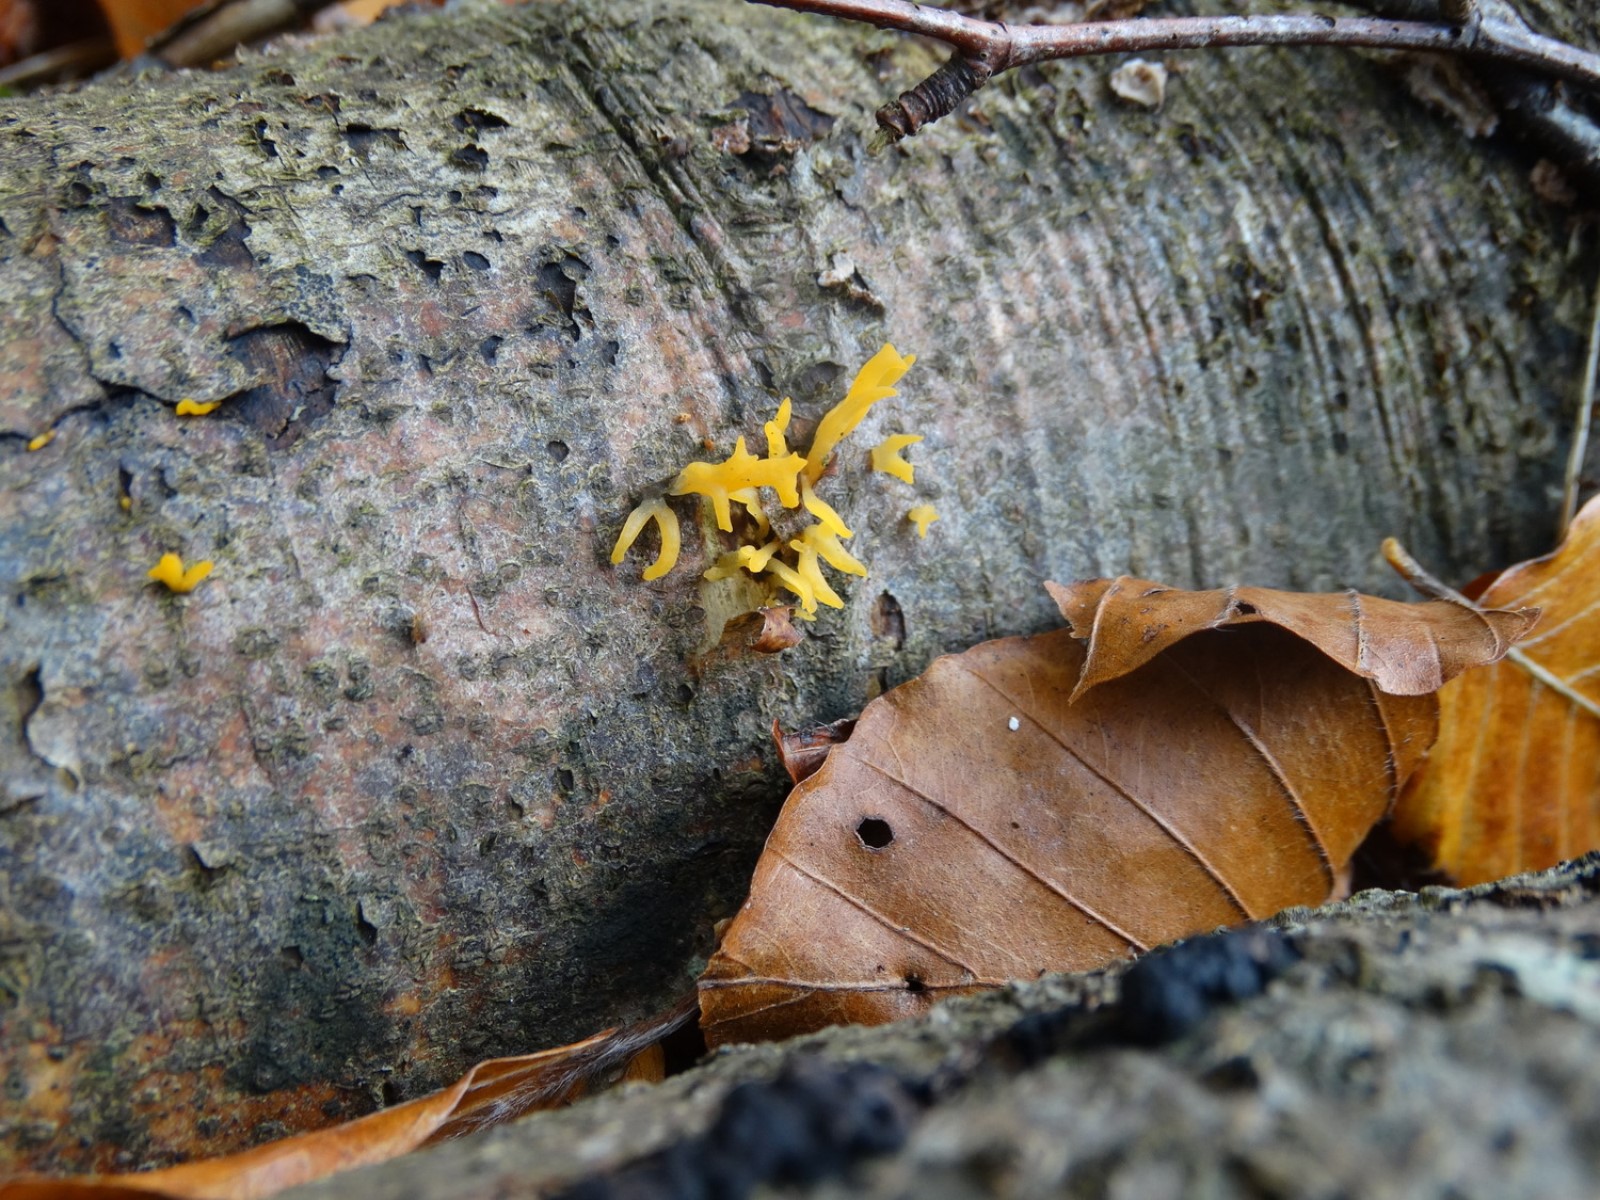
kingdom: Fungi
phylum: Basidiomycota
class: Dacrymycetes
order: Dacrymycetales
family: Dacrymycetaceae
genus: Calocera
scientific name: Calocera cornea
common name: liden guldgaffel
